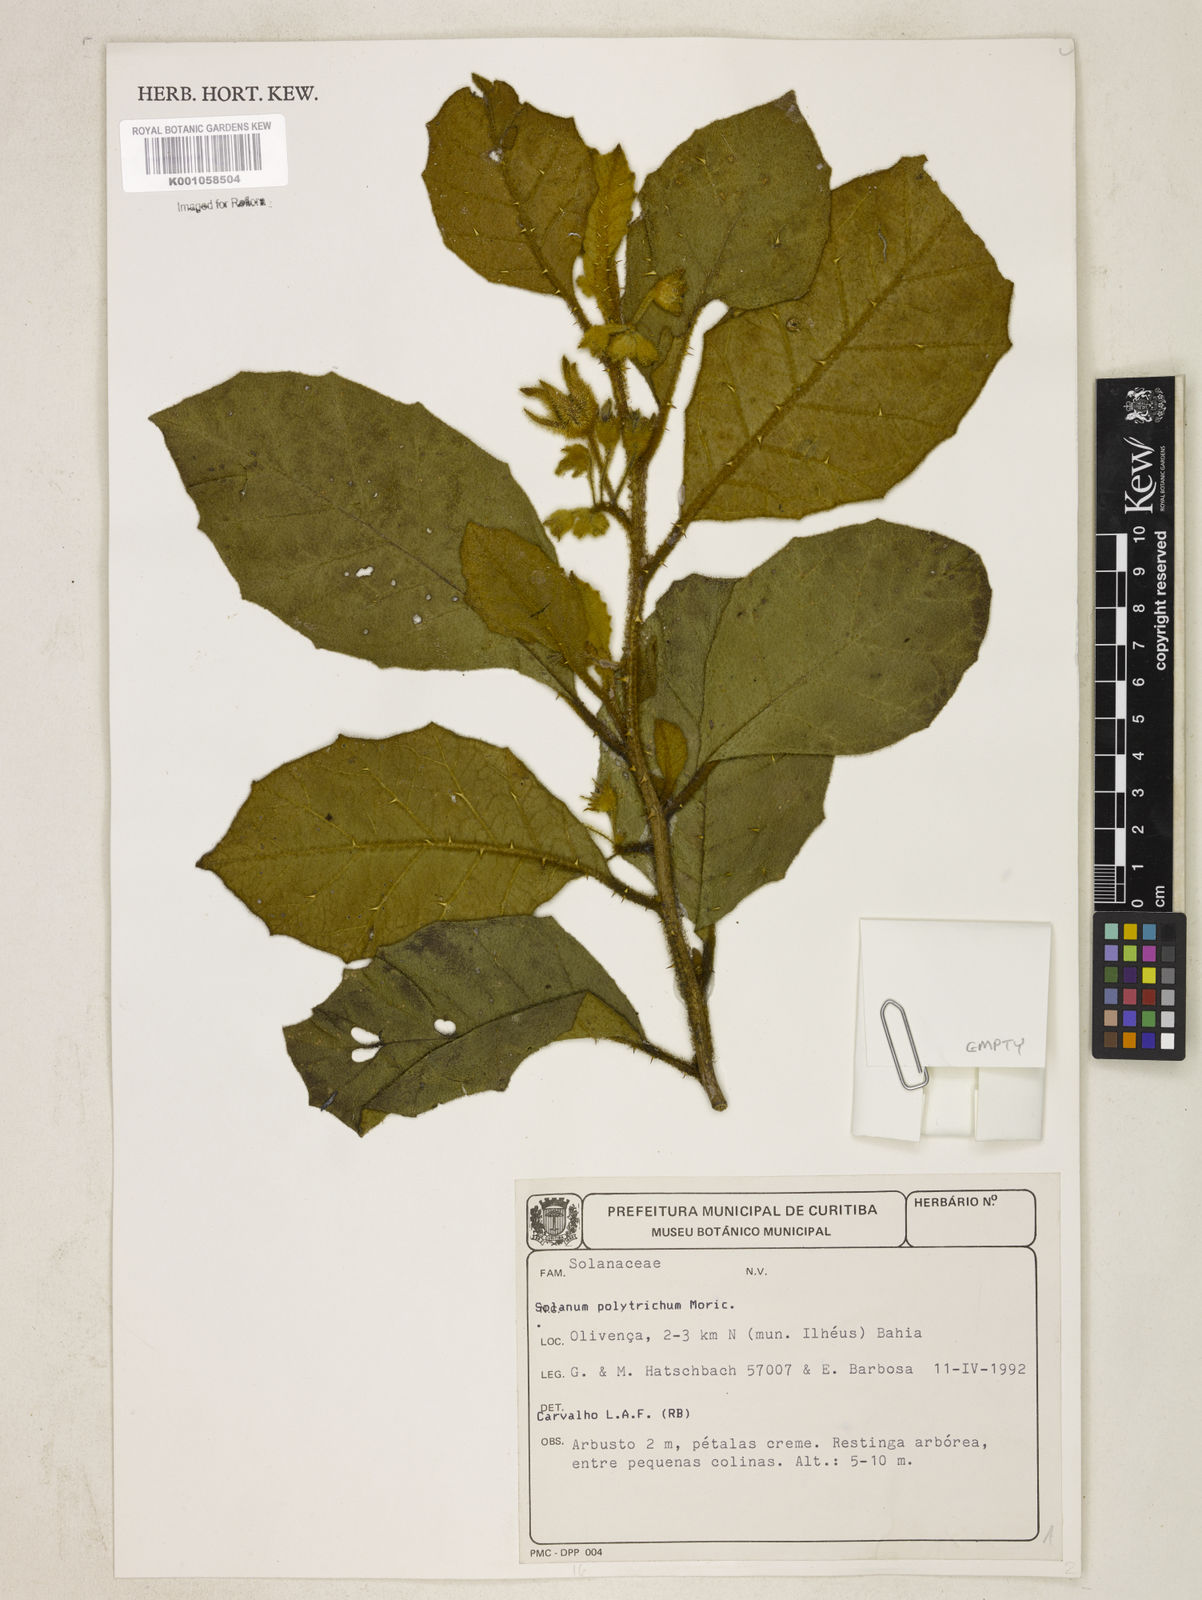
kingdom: Plantae
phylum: Tracheophyta
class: Magnoliopsida
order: Solanales
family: Solanaceae
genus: Solanum
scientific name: Solanum polytrichum
